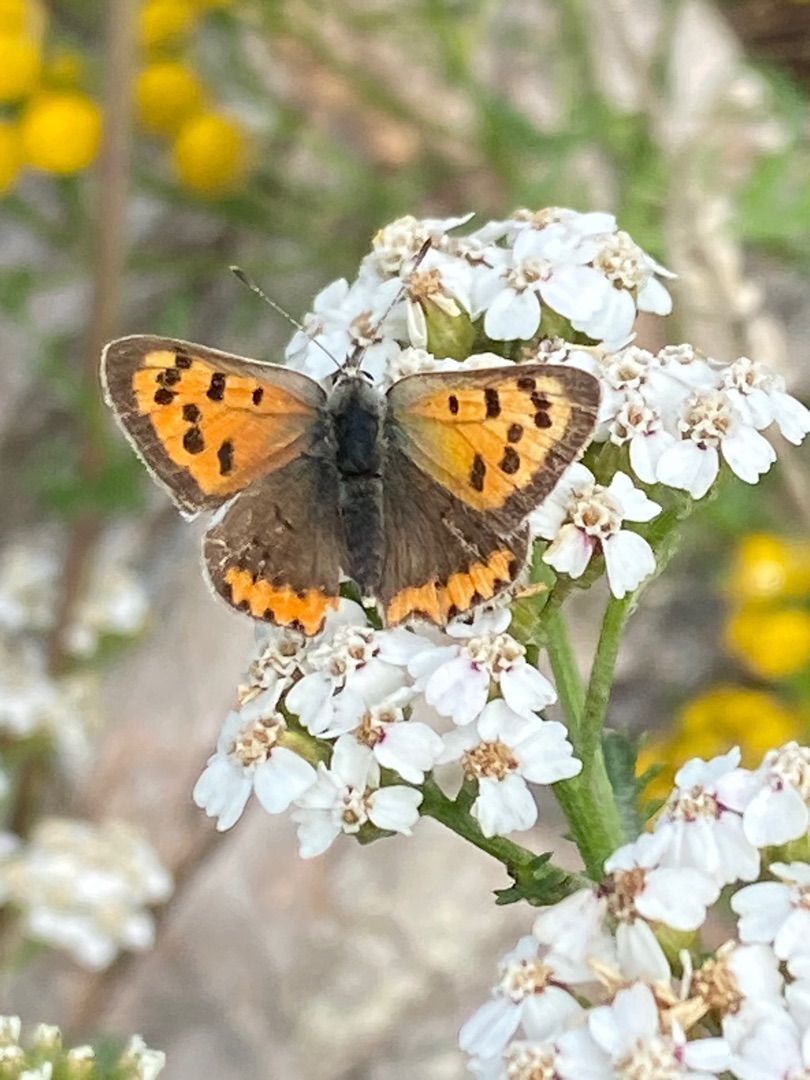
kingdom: Animalia
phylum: Arthropoda
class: Insecta
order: Lepidoptera
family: Lycaenidae
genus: Lycaena
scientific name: Lycaena phlaeas
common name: Lille ildfugl
